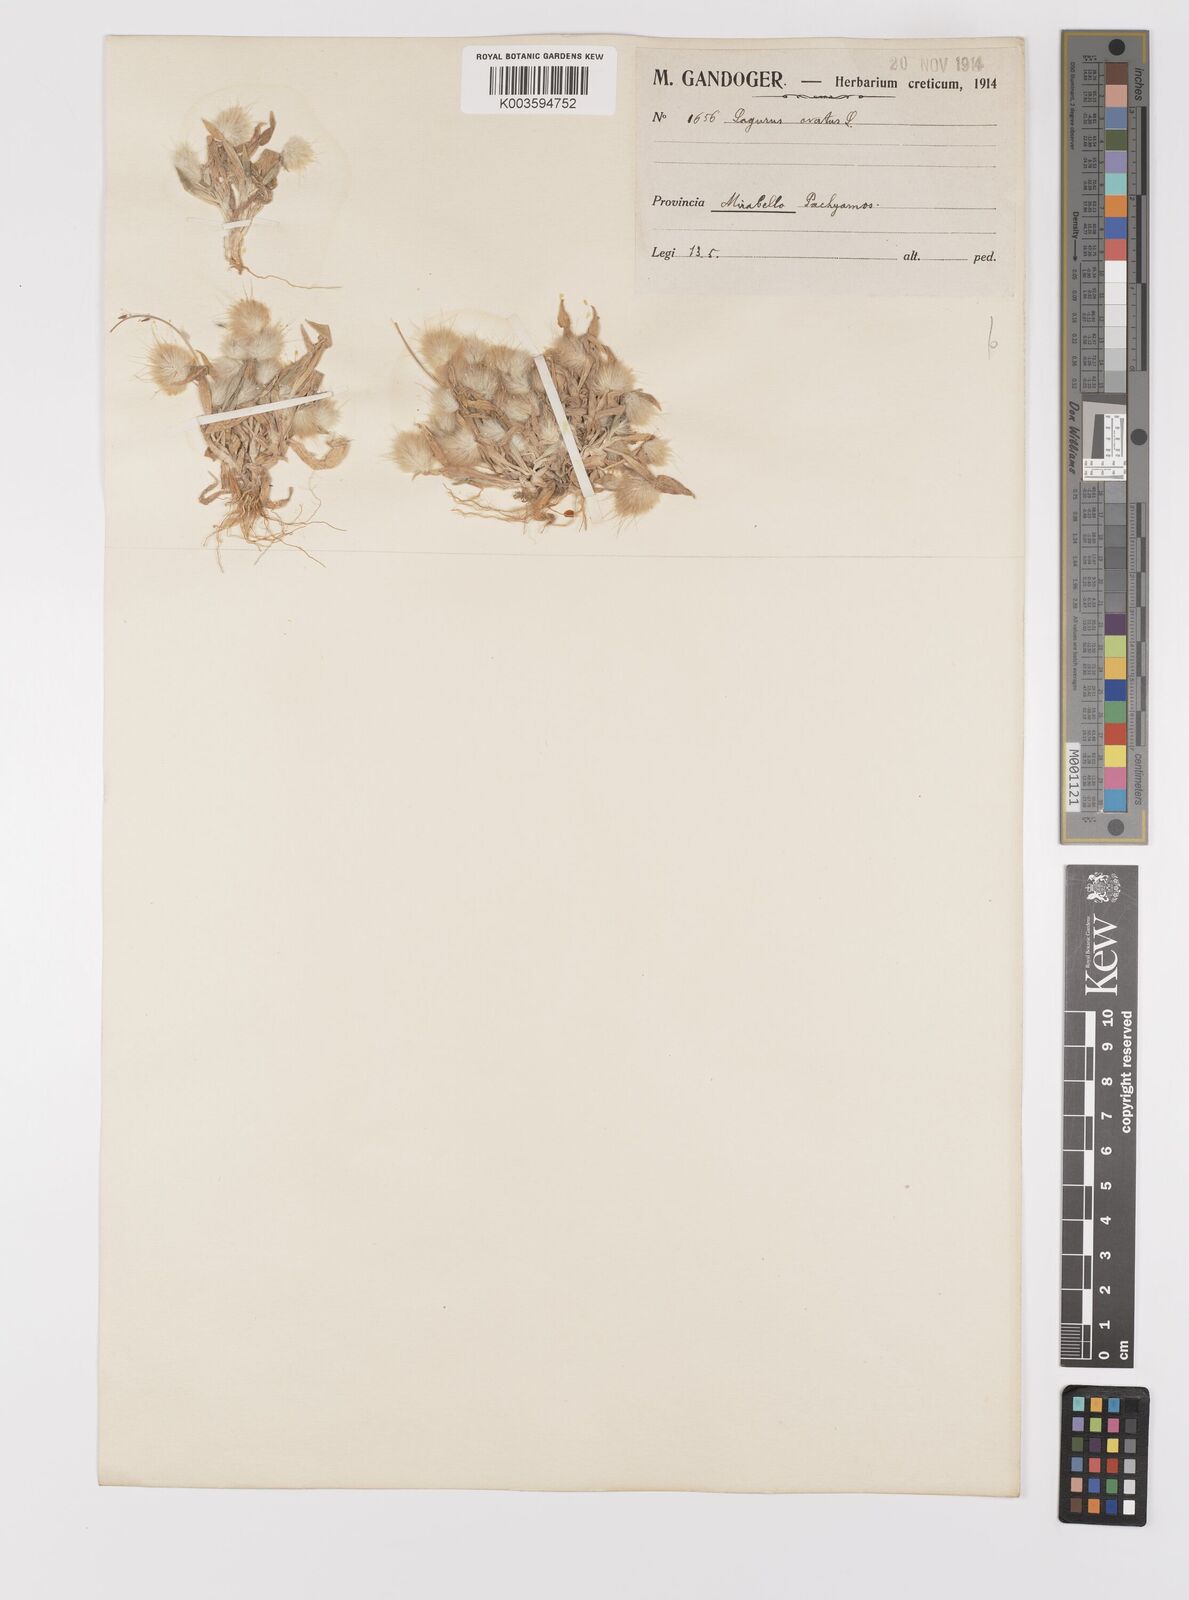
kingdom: Plantae
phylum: Tracheophyta
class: Liliopsida
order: Poales
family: Poaceae
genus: Lagurus
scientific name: Lagurus ovatus
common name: Hare's-tail
